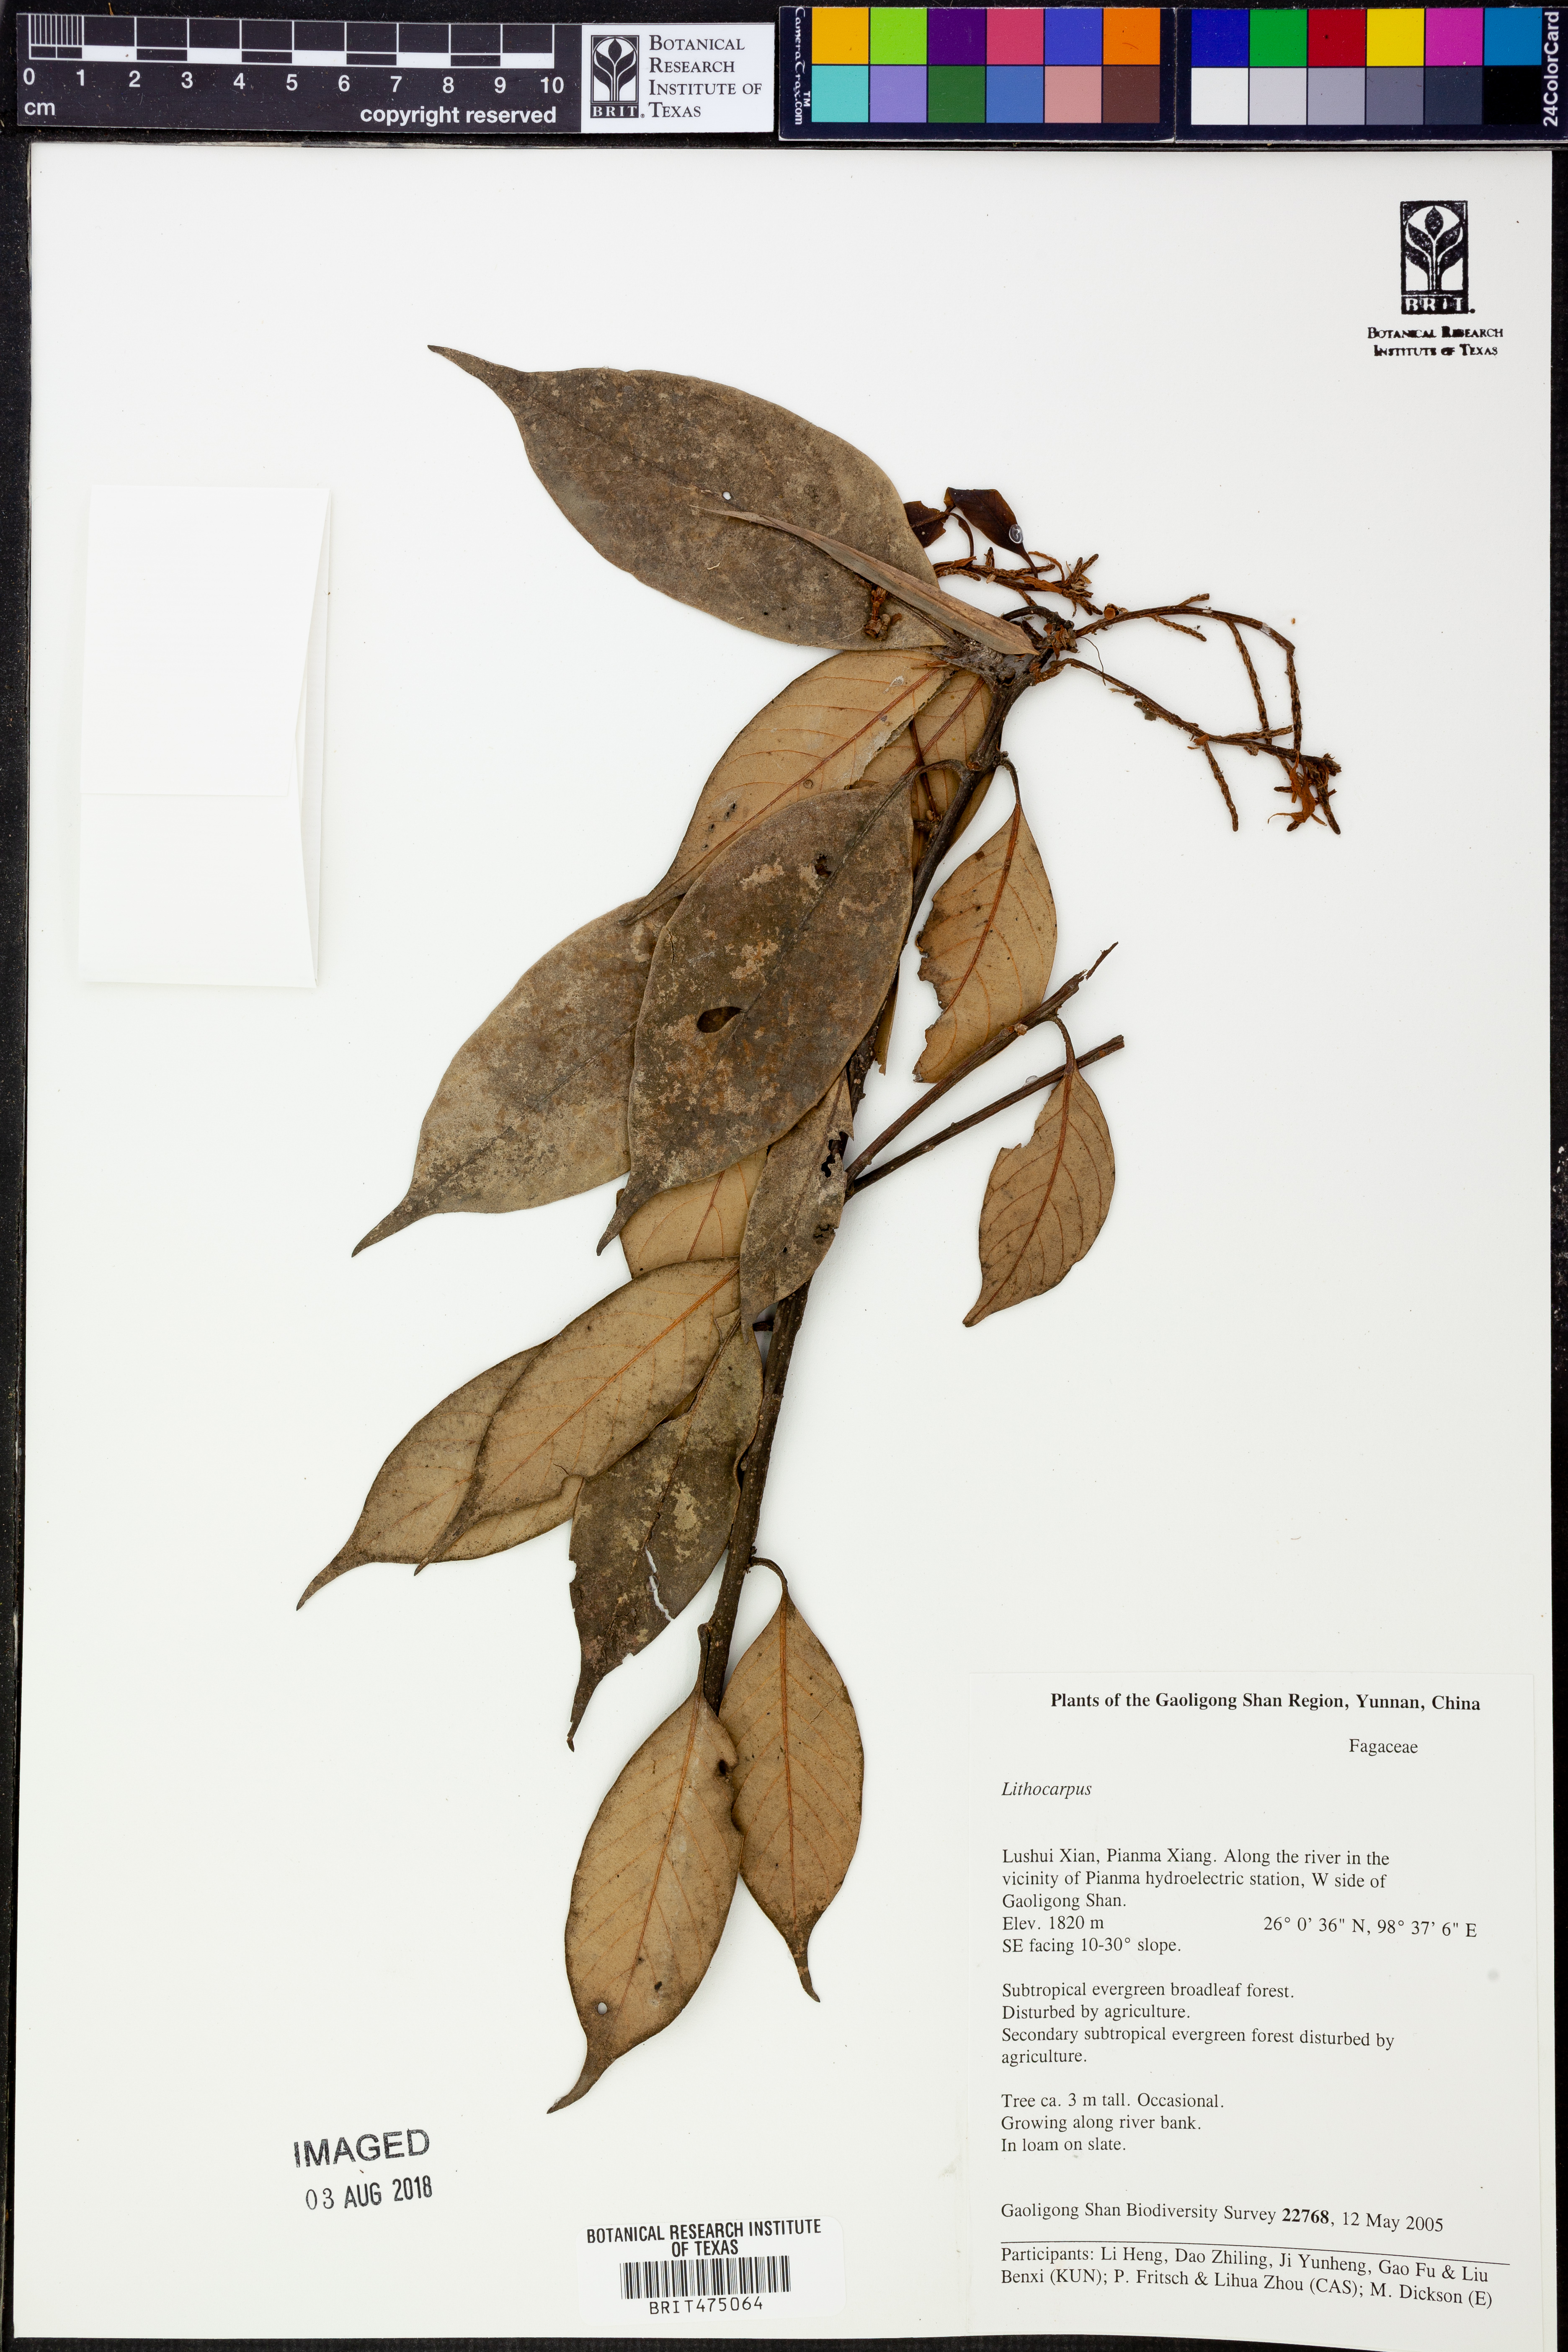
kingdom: Plantae
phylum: Tracheophyta
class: Magnoliopsida
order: Fagales
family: Fagaceae
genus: Lithocarpus
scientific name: Lithocarpus
